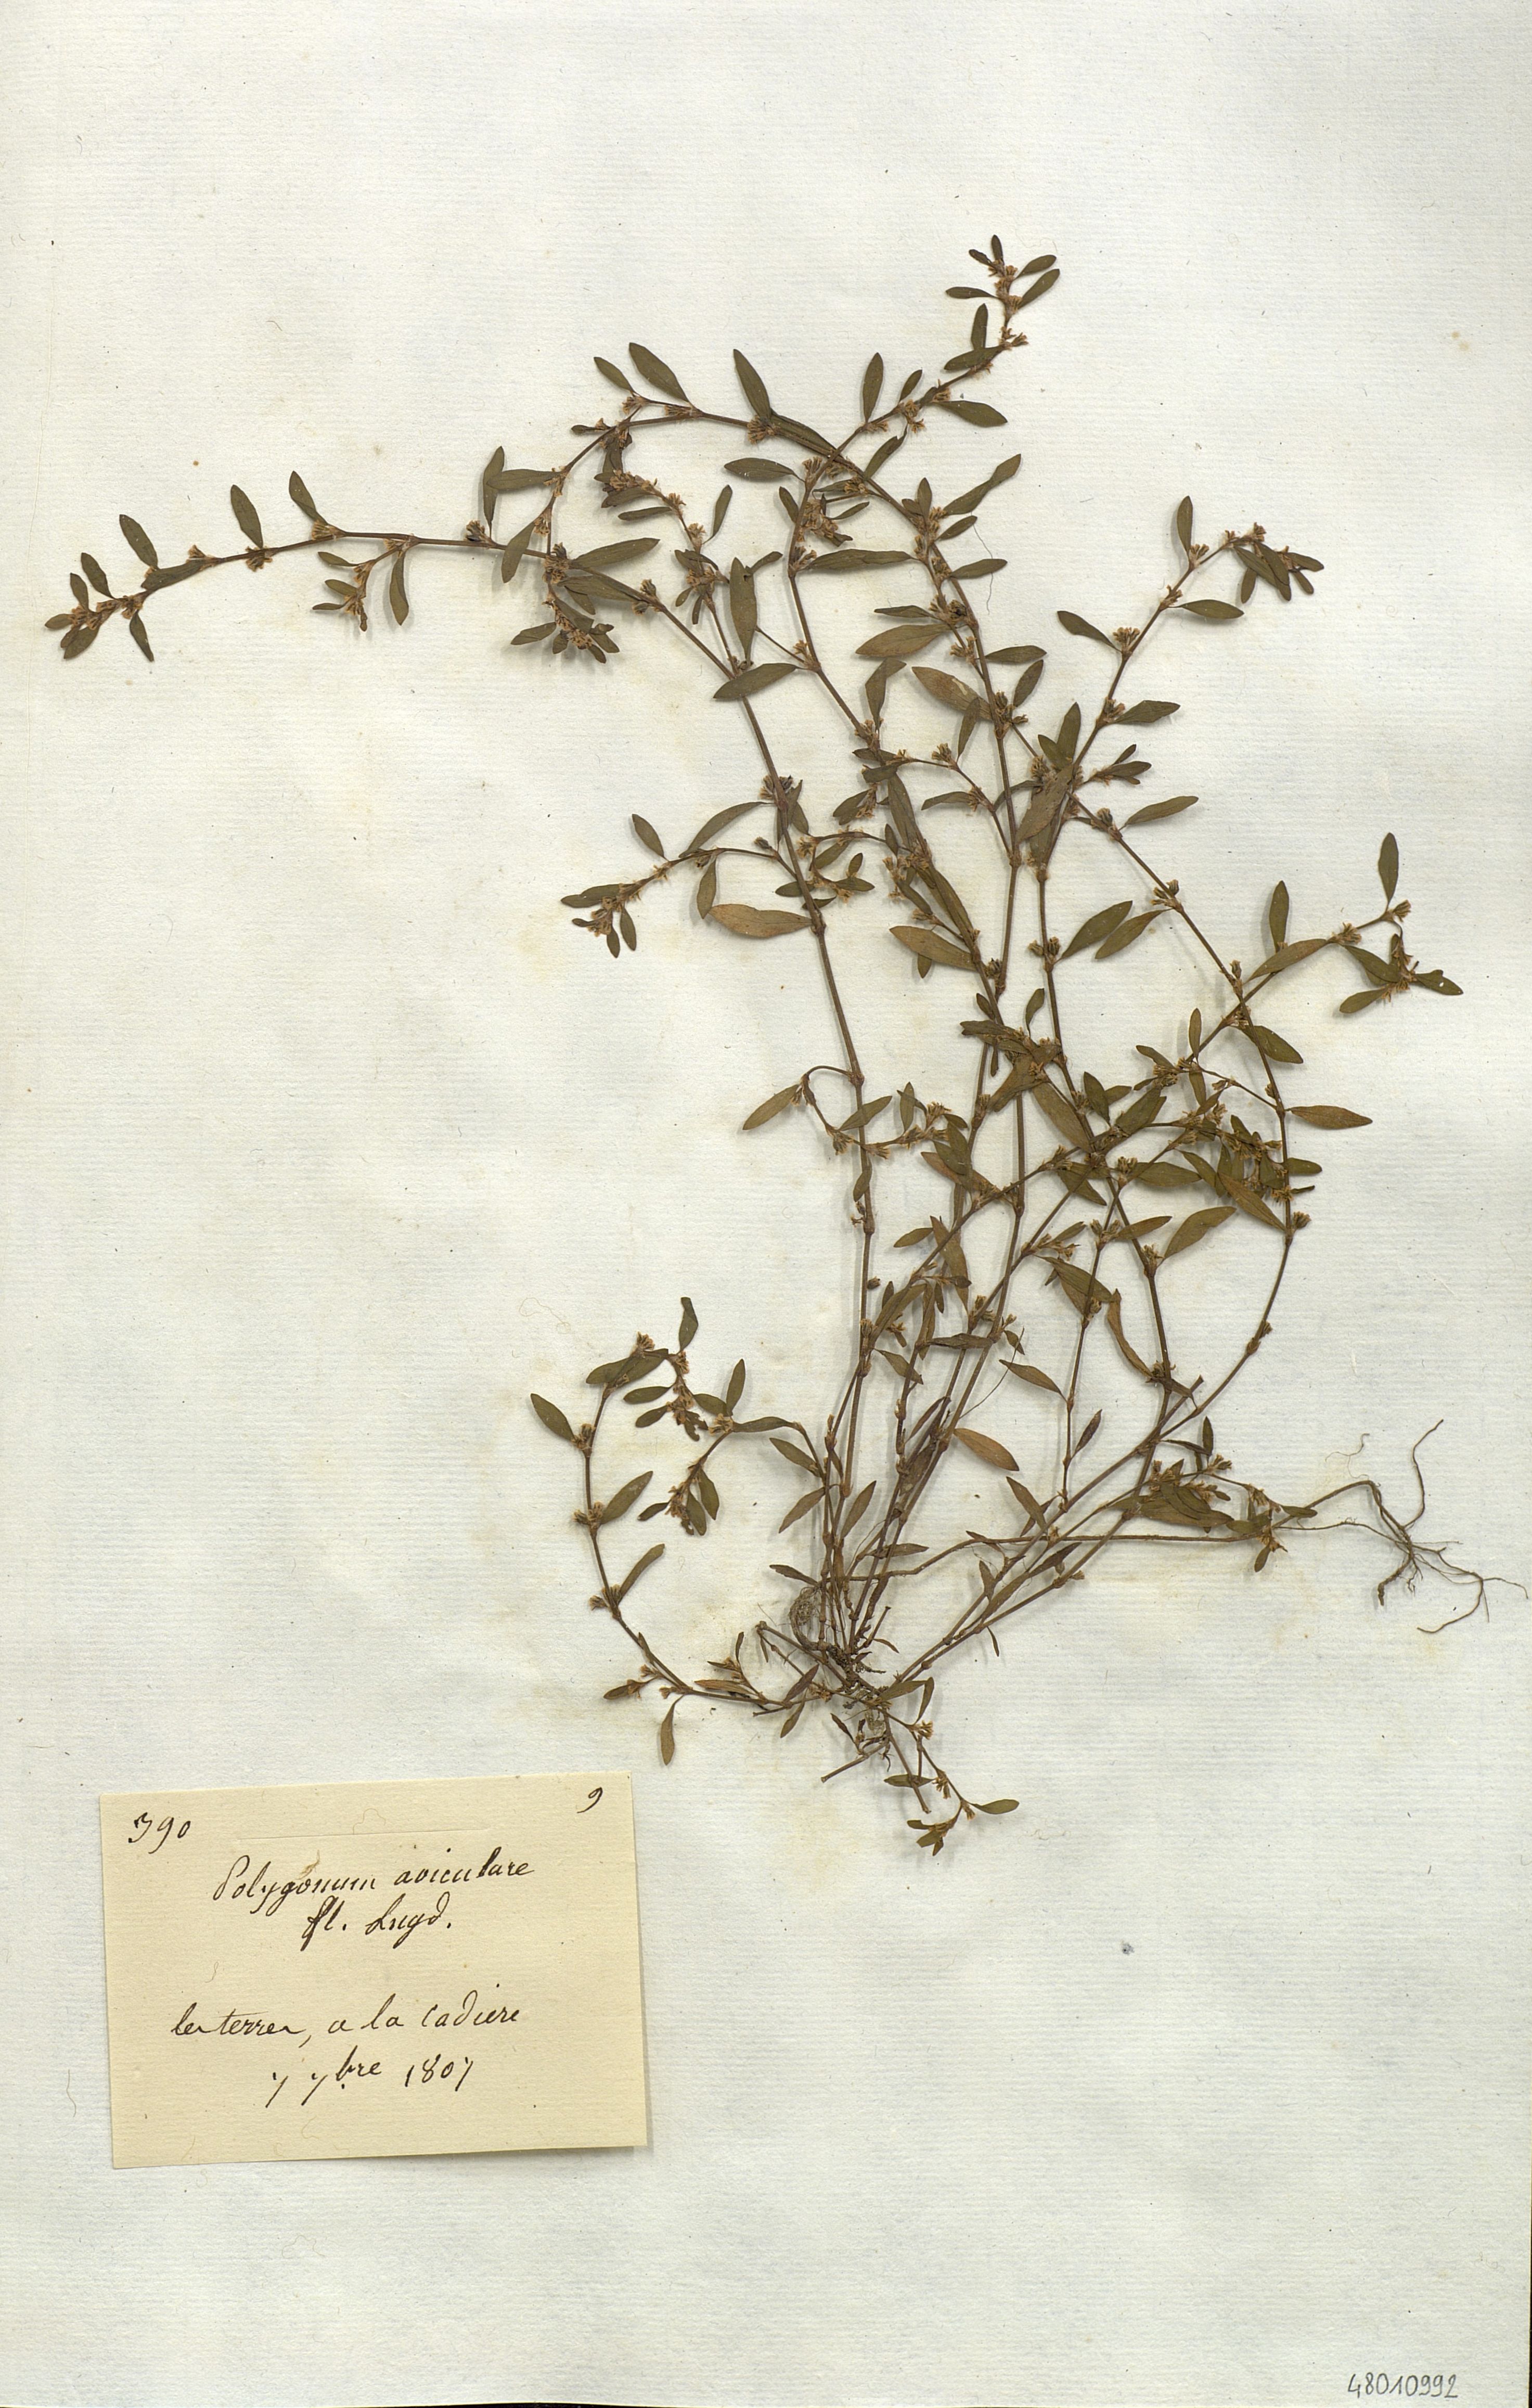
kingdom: Plantae
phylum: Tracheophyta
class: Magnoliopsida
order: Caryophyllales
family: Polygonaceae
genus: Polygonum
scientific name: Polygonum aviculare
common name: Prostrate knotweed
